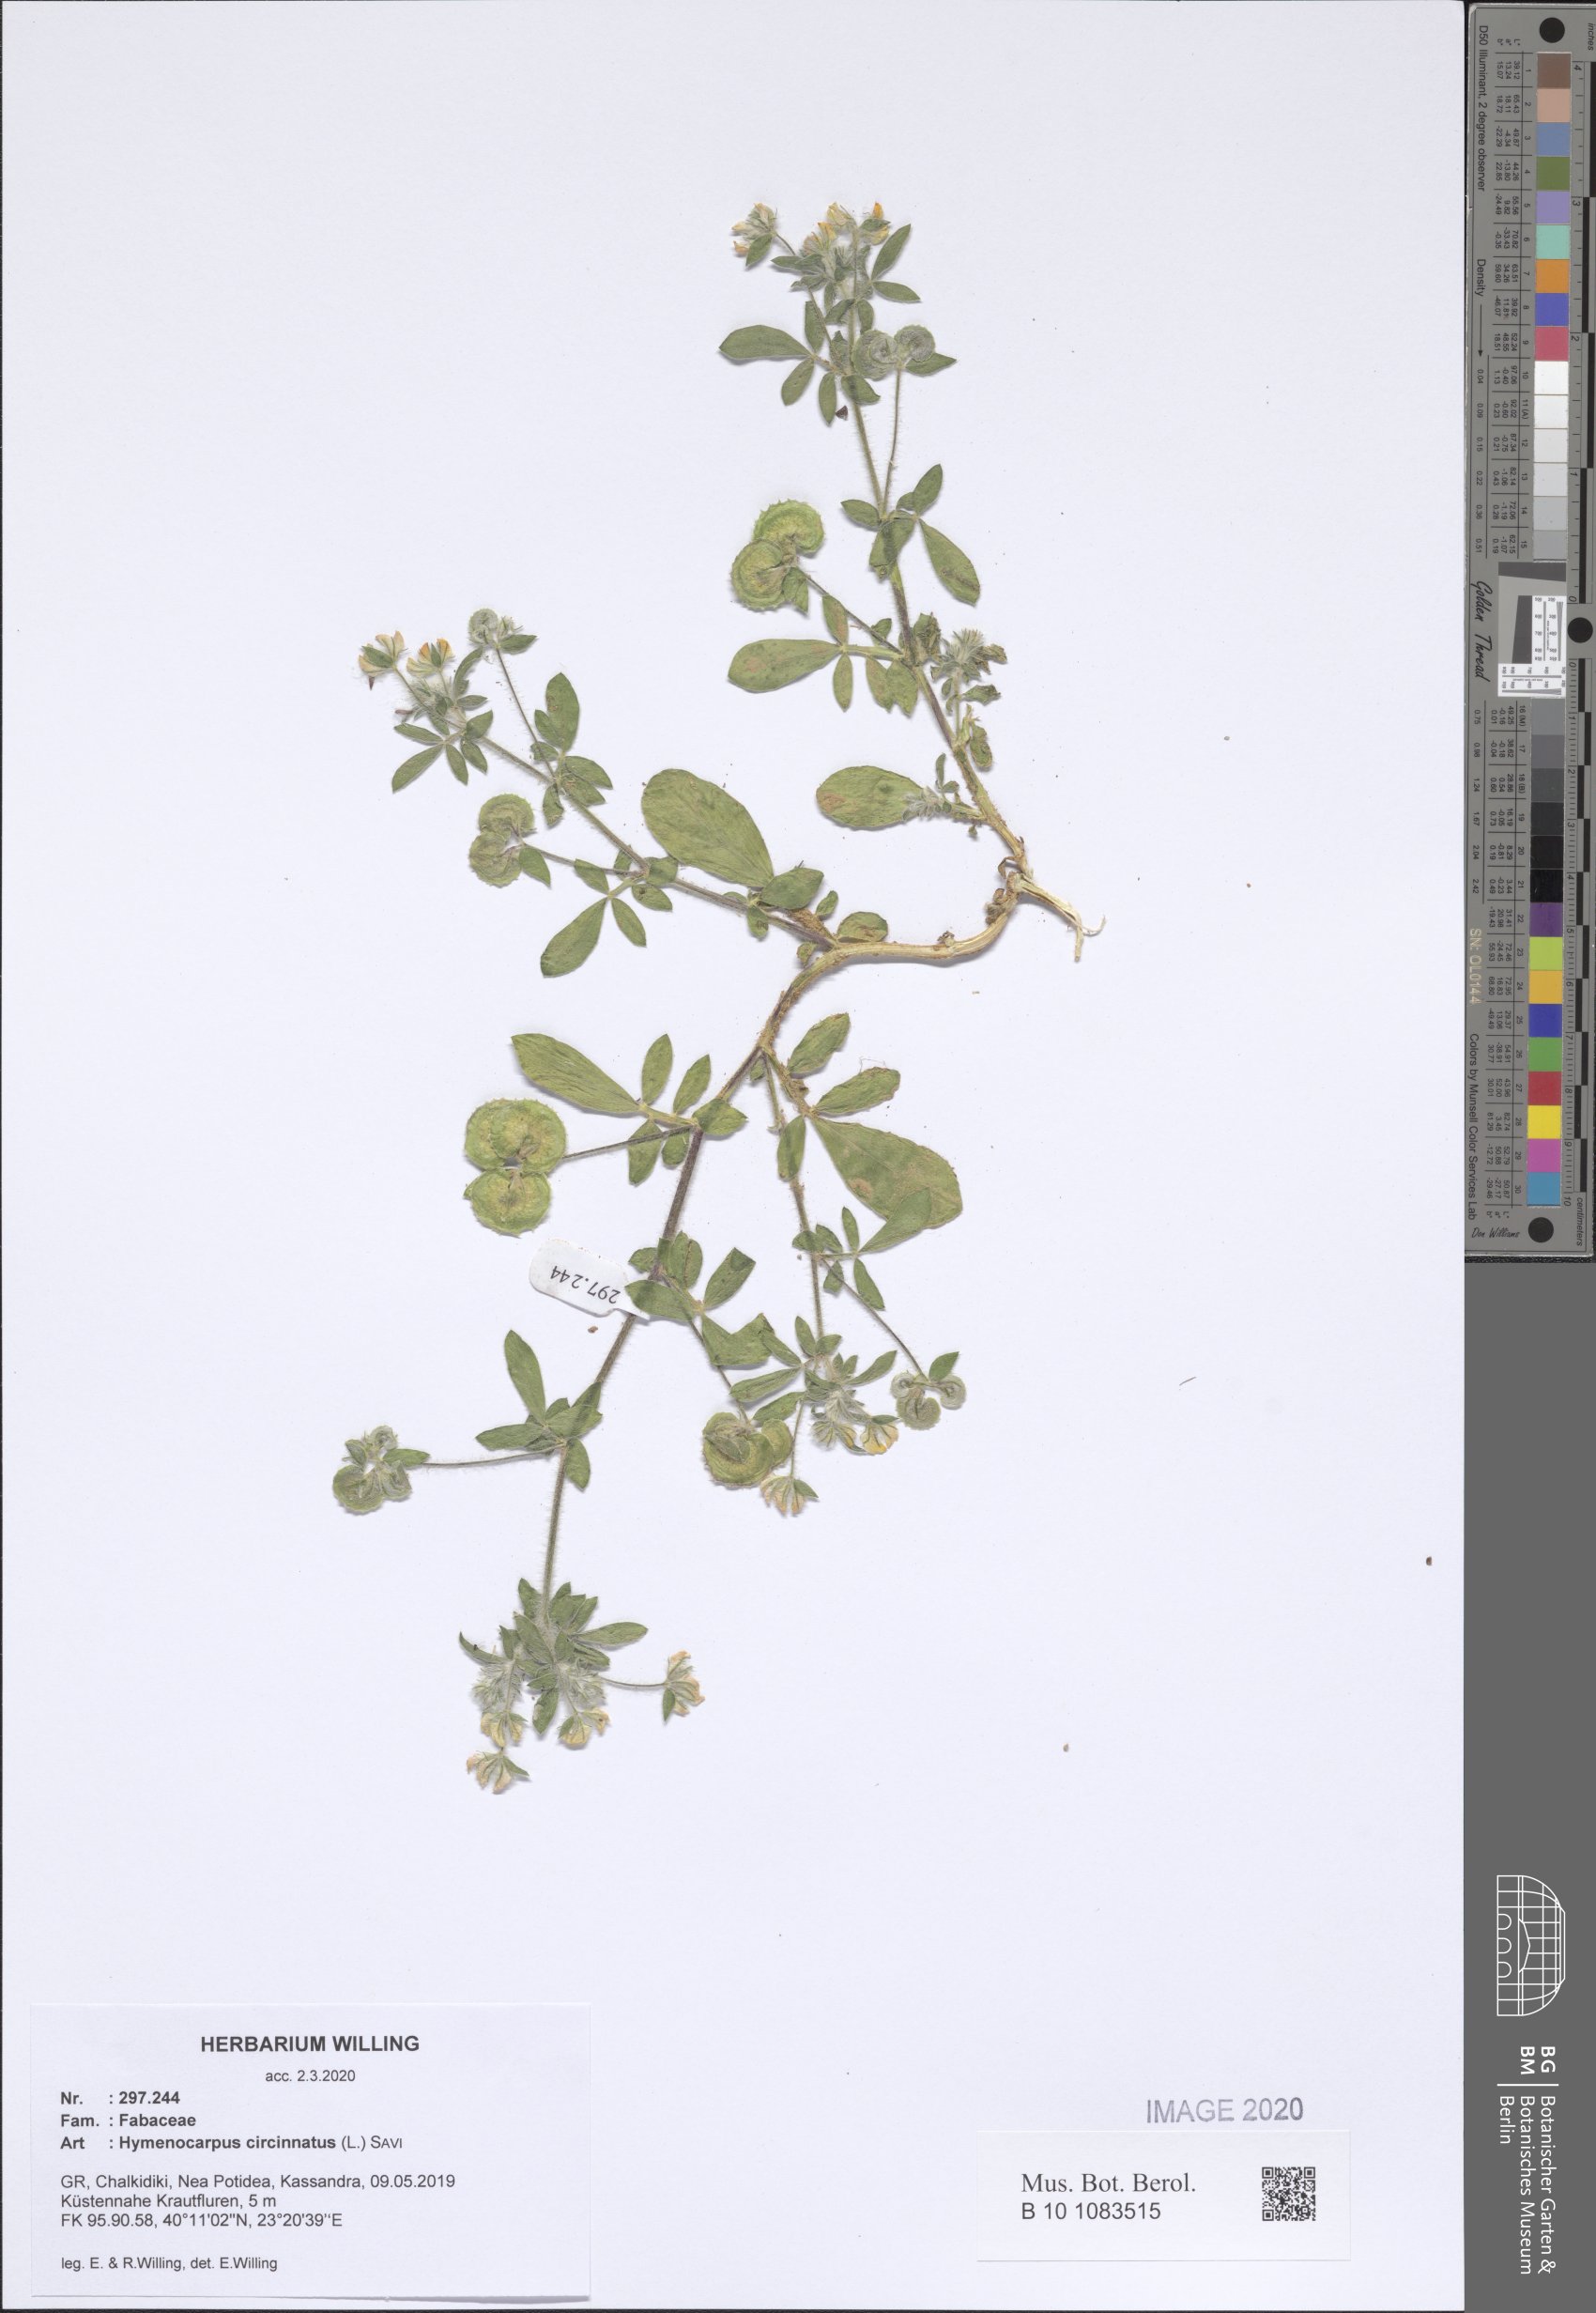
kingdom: Plantae
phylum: Tracheophyta
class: Magnoliopsida
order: Fabales
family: Fabaceae
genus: Anthyllis
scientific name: Anthyllis circinnata
